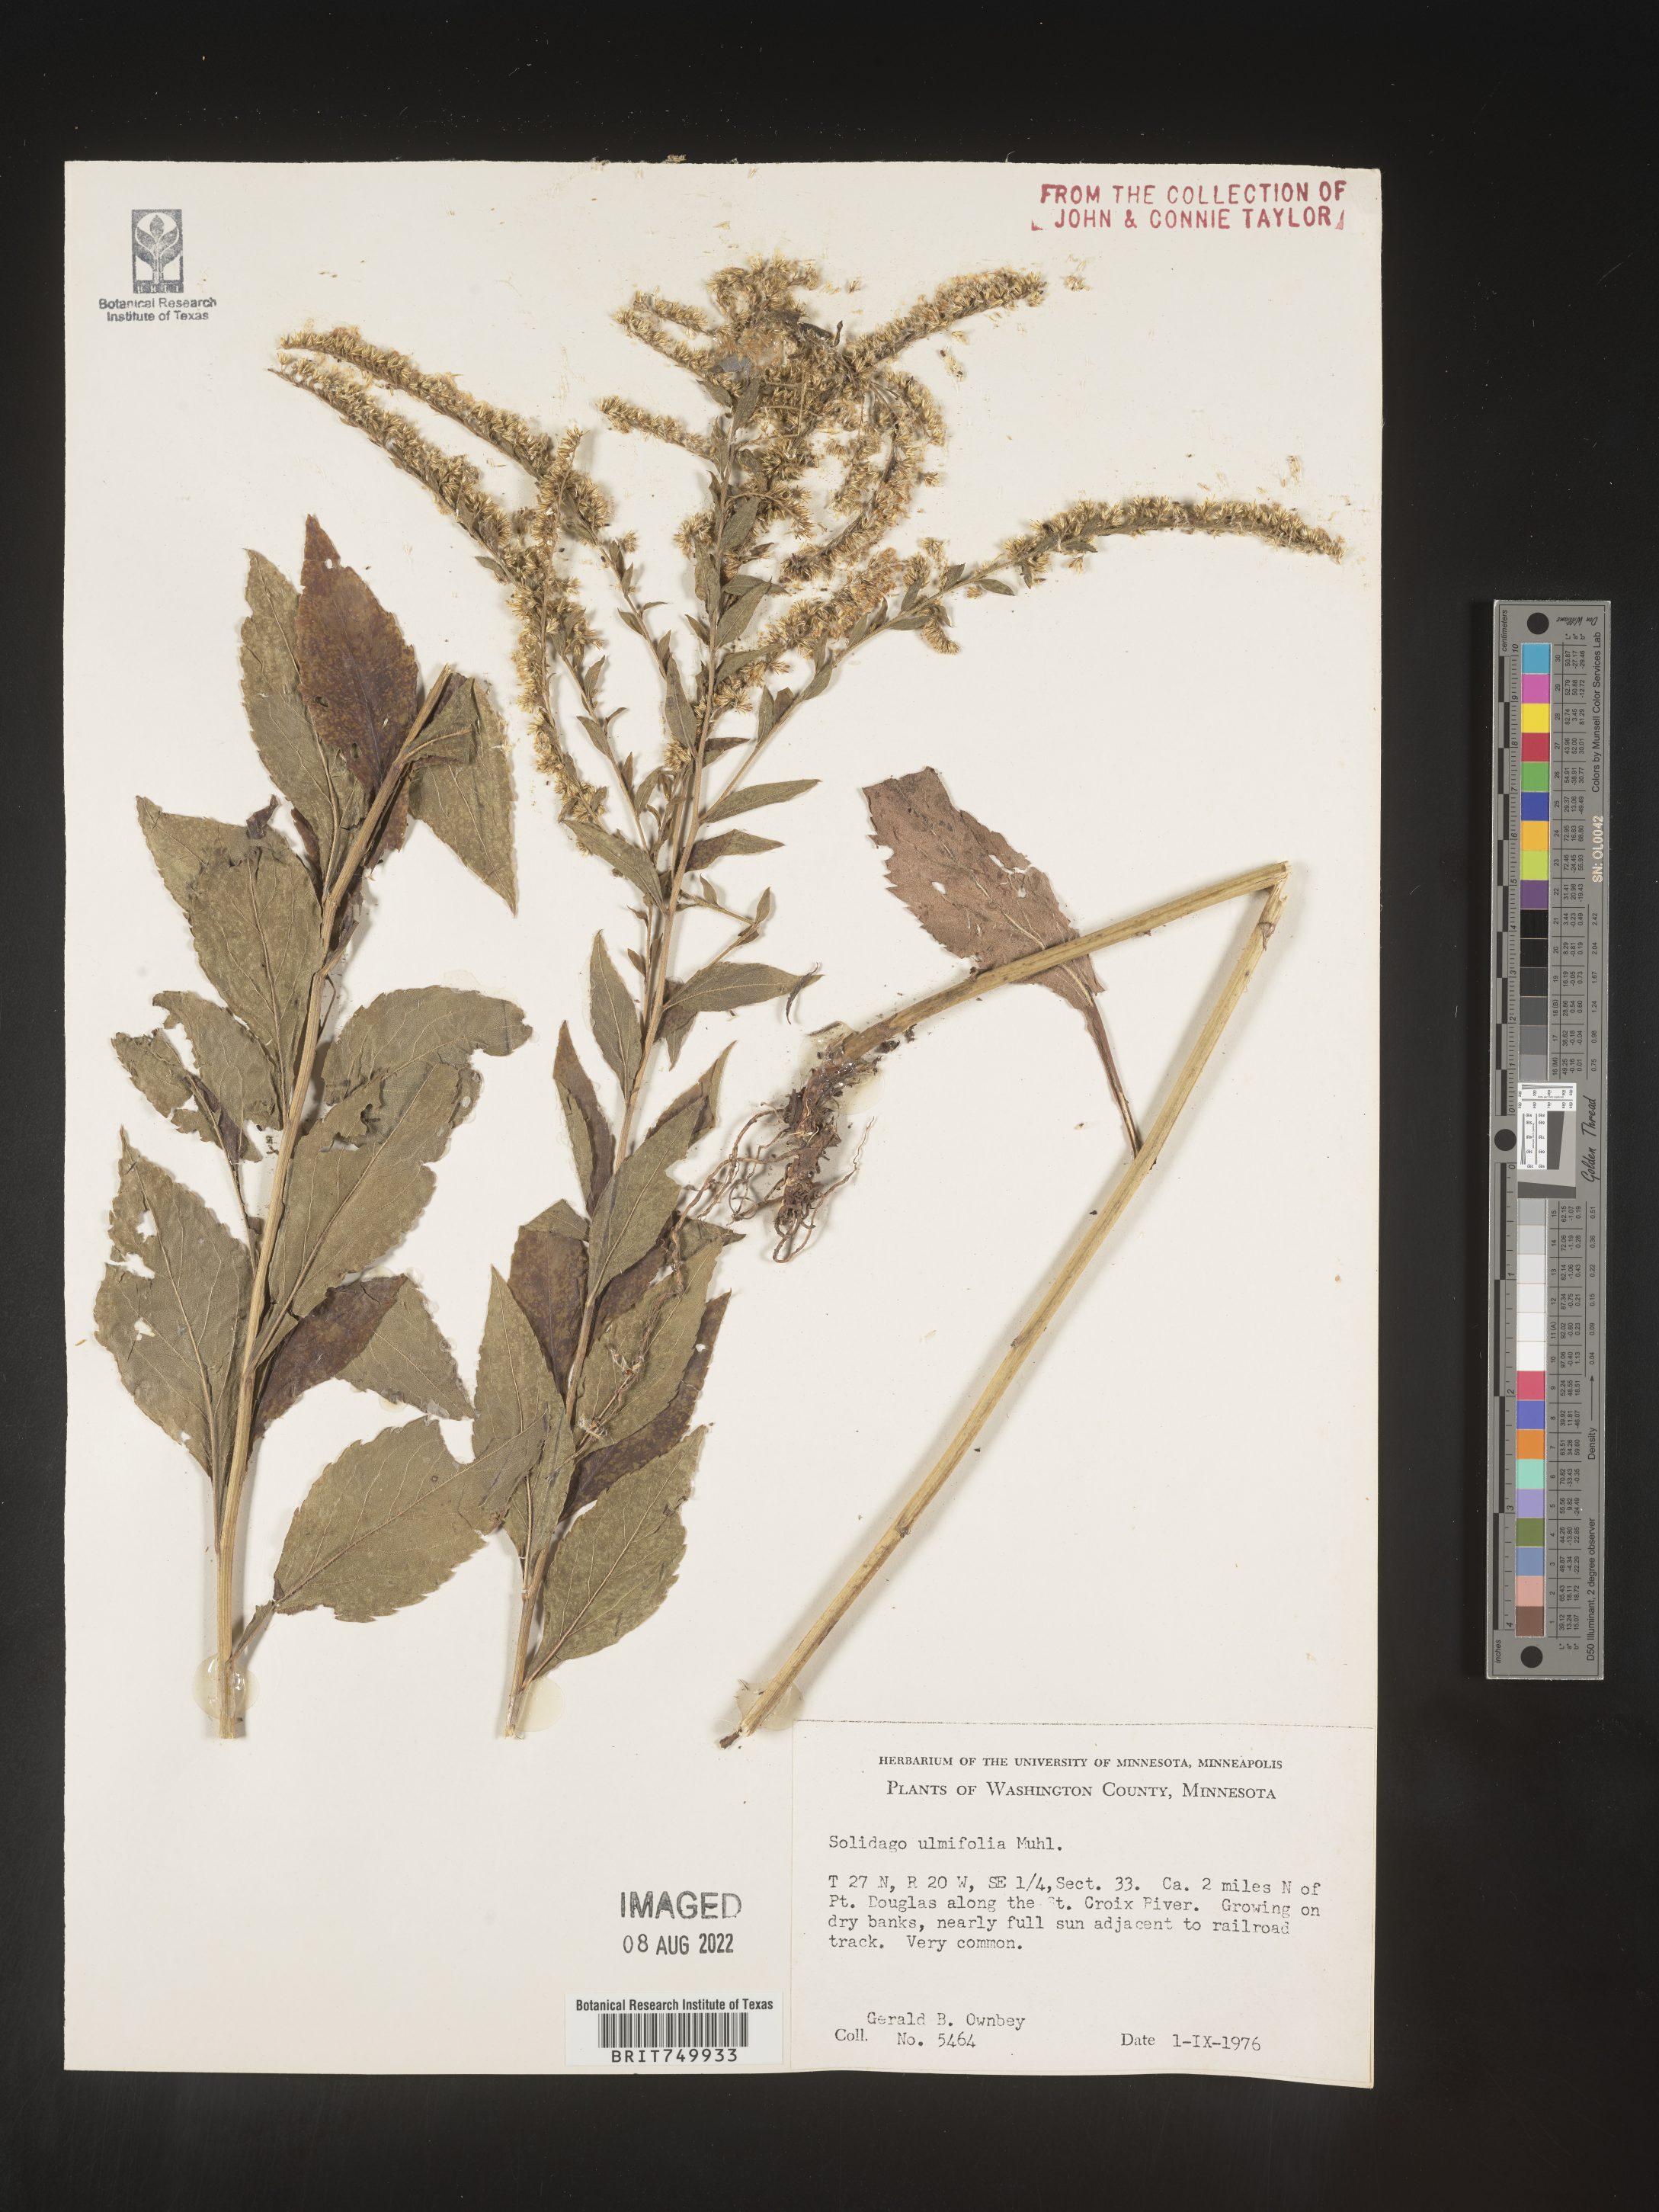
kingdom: Plantae
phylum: Tracheophyta
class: Magnoliopsida
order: Asterales
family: Asteraceae
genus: Solidago
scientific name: Solidago ulmifolia
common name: Elm-leaf goldenrod
